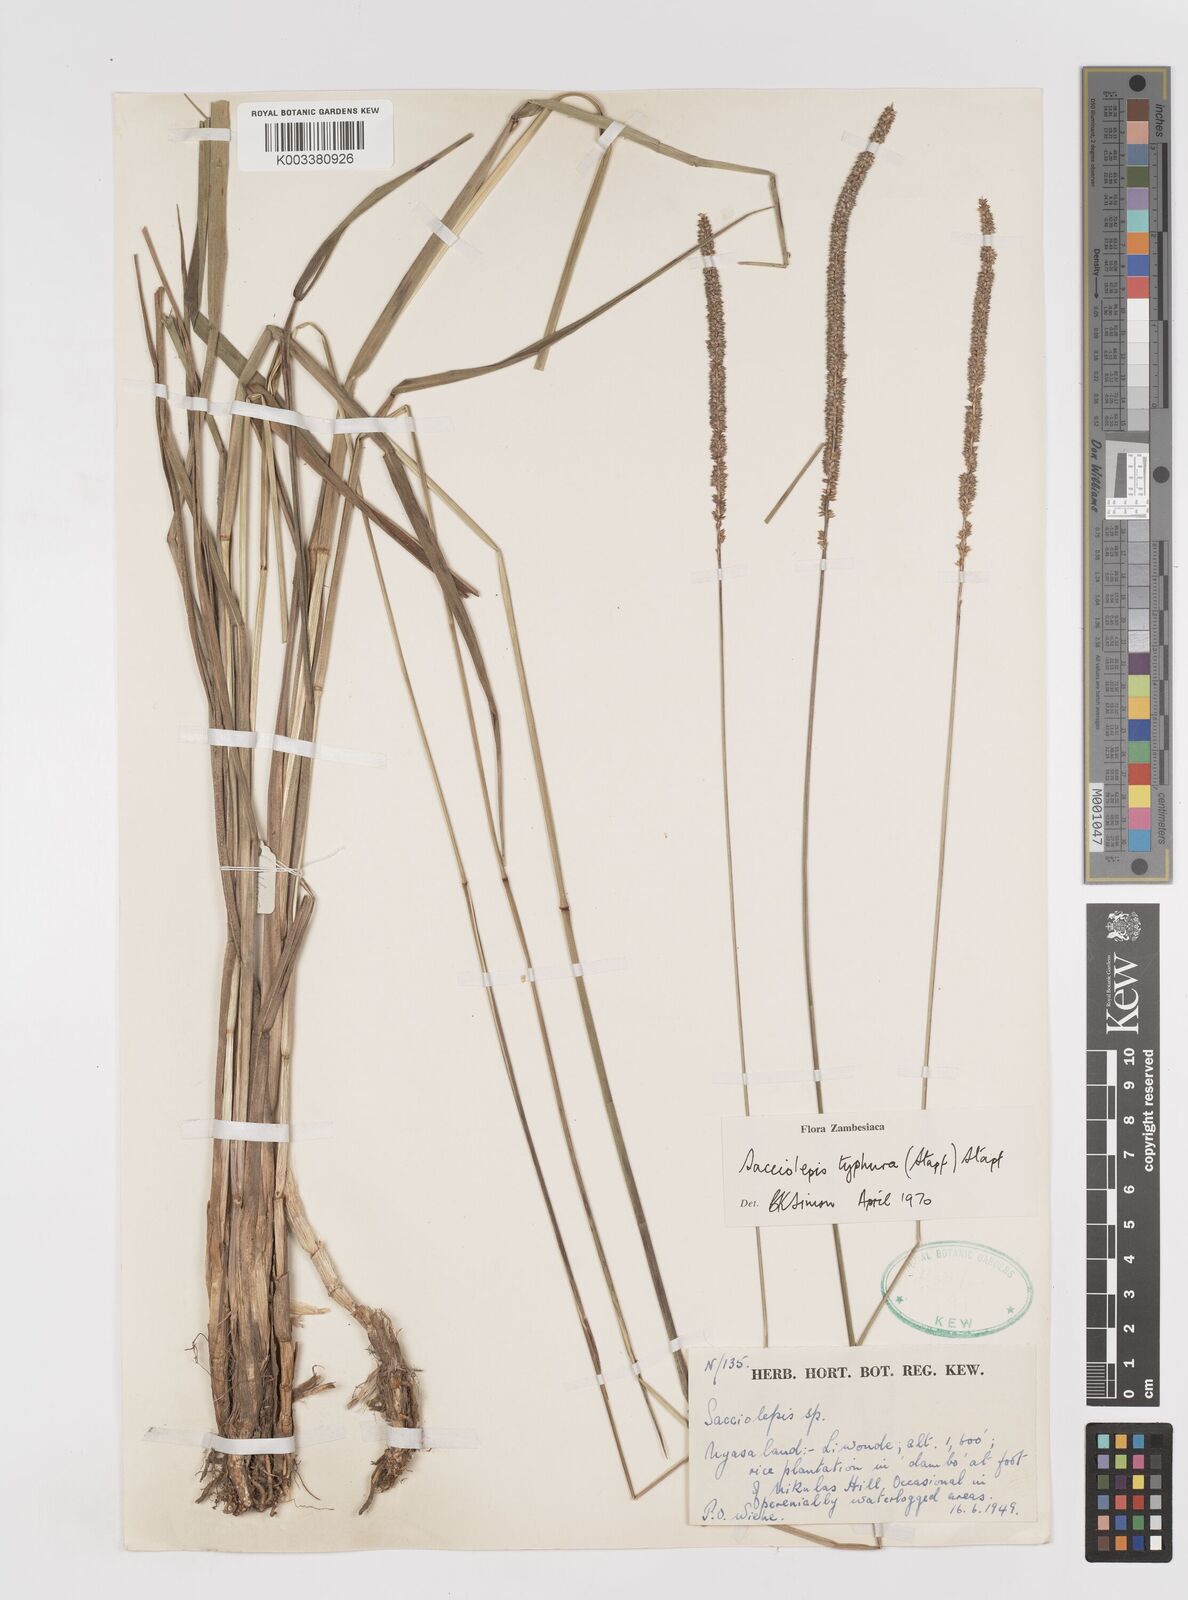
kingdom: Plantae
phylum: Tracheophyta
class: Liliopsida
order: Poales
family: Poaceae
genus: Sacciolepis
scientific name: Sacciolepis typhura
